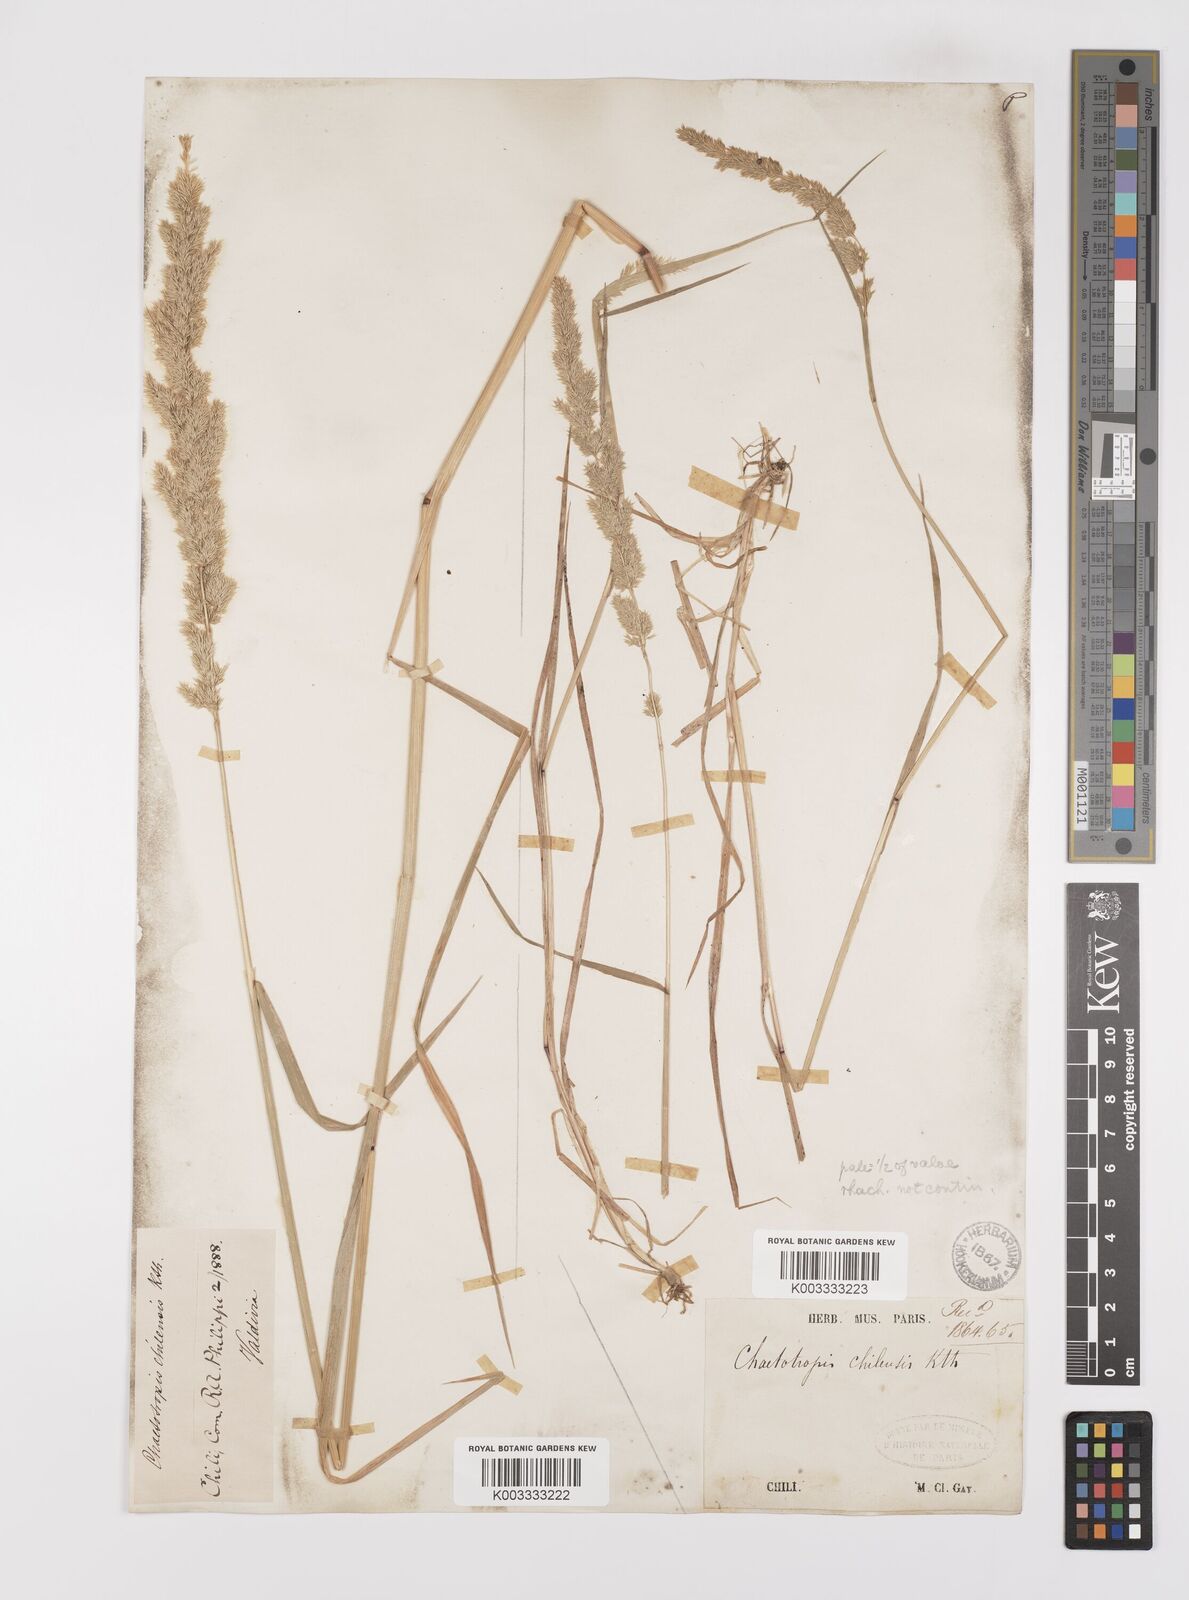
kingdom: Plantae
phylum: Tracheophyta
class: Liliopsida
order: Poales
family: Poaceae
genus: Polypogon
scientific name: Polypogon chilensis
